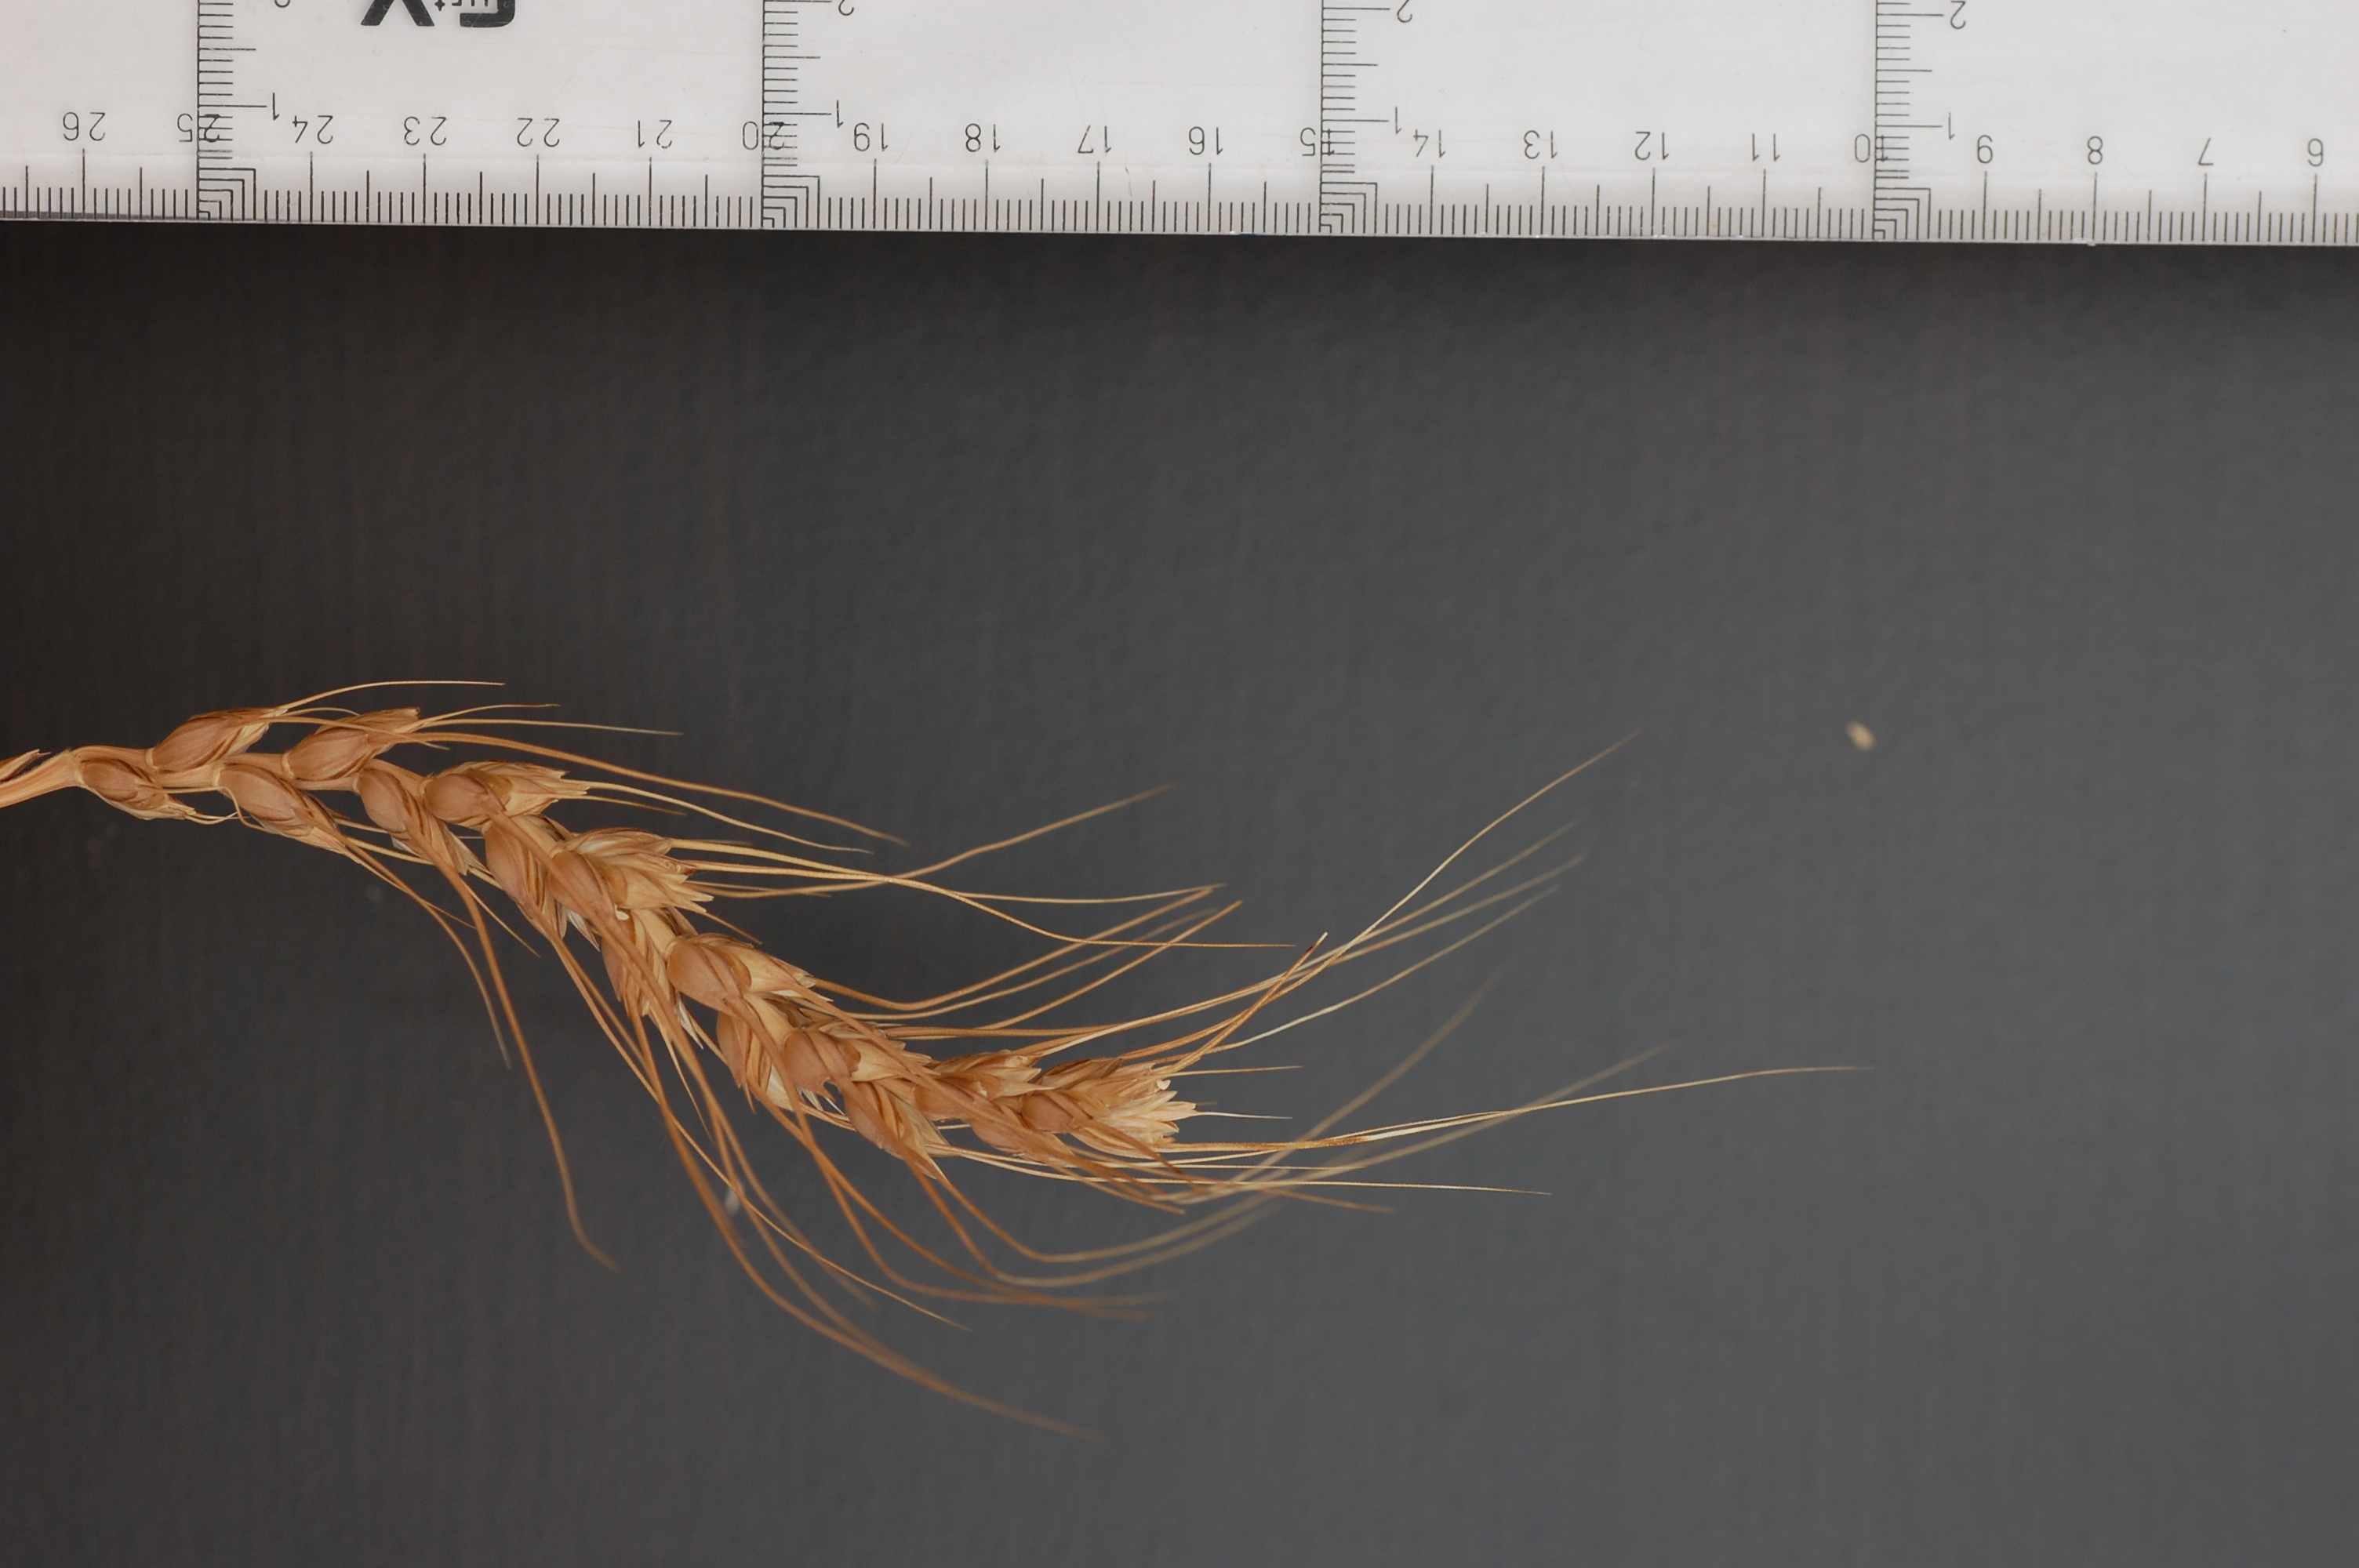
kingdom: Plantae
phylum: Tracheophyta
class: Liliopsida
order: Poales
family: Poaceae
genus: Triticum
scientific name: Triticum aestivum
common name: Common wheat
